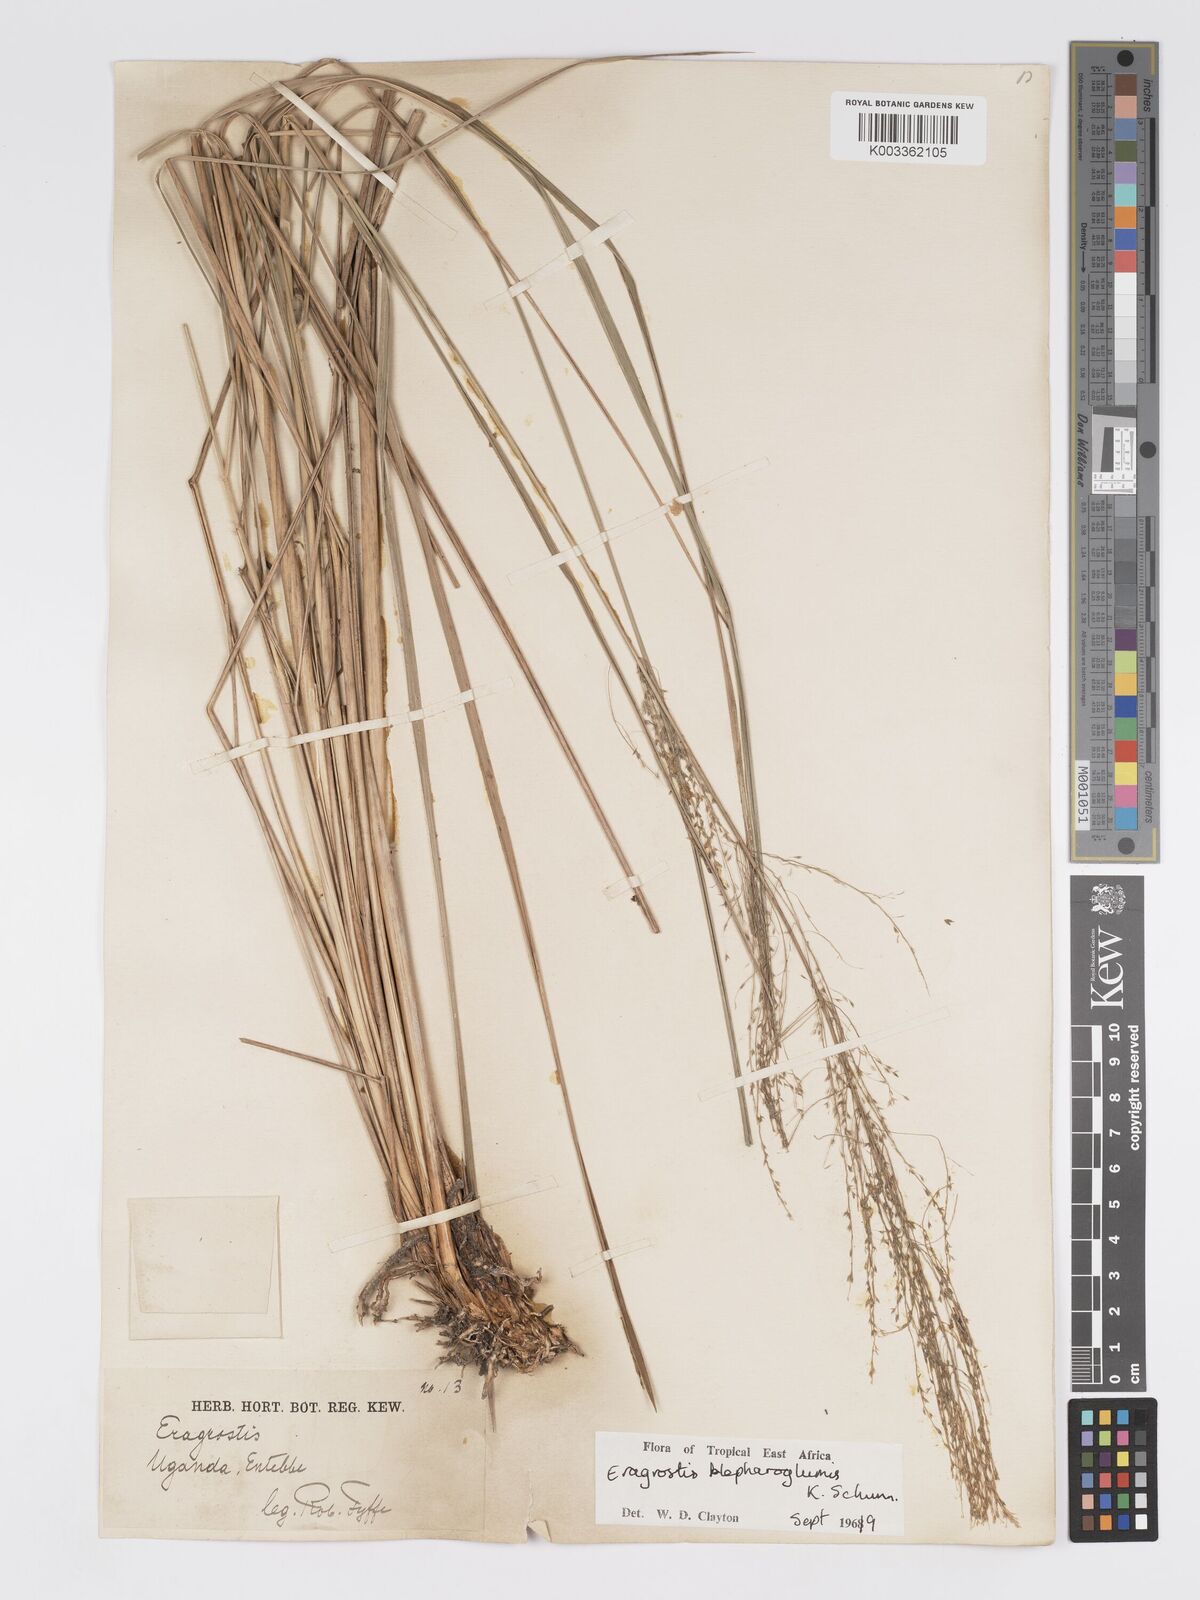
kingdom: Plantae
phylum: Tracheophyta
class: Liliopsida
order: Poales
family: Poaceae
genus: Eragrostis
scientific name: Eragrostis olivacea
